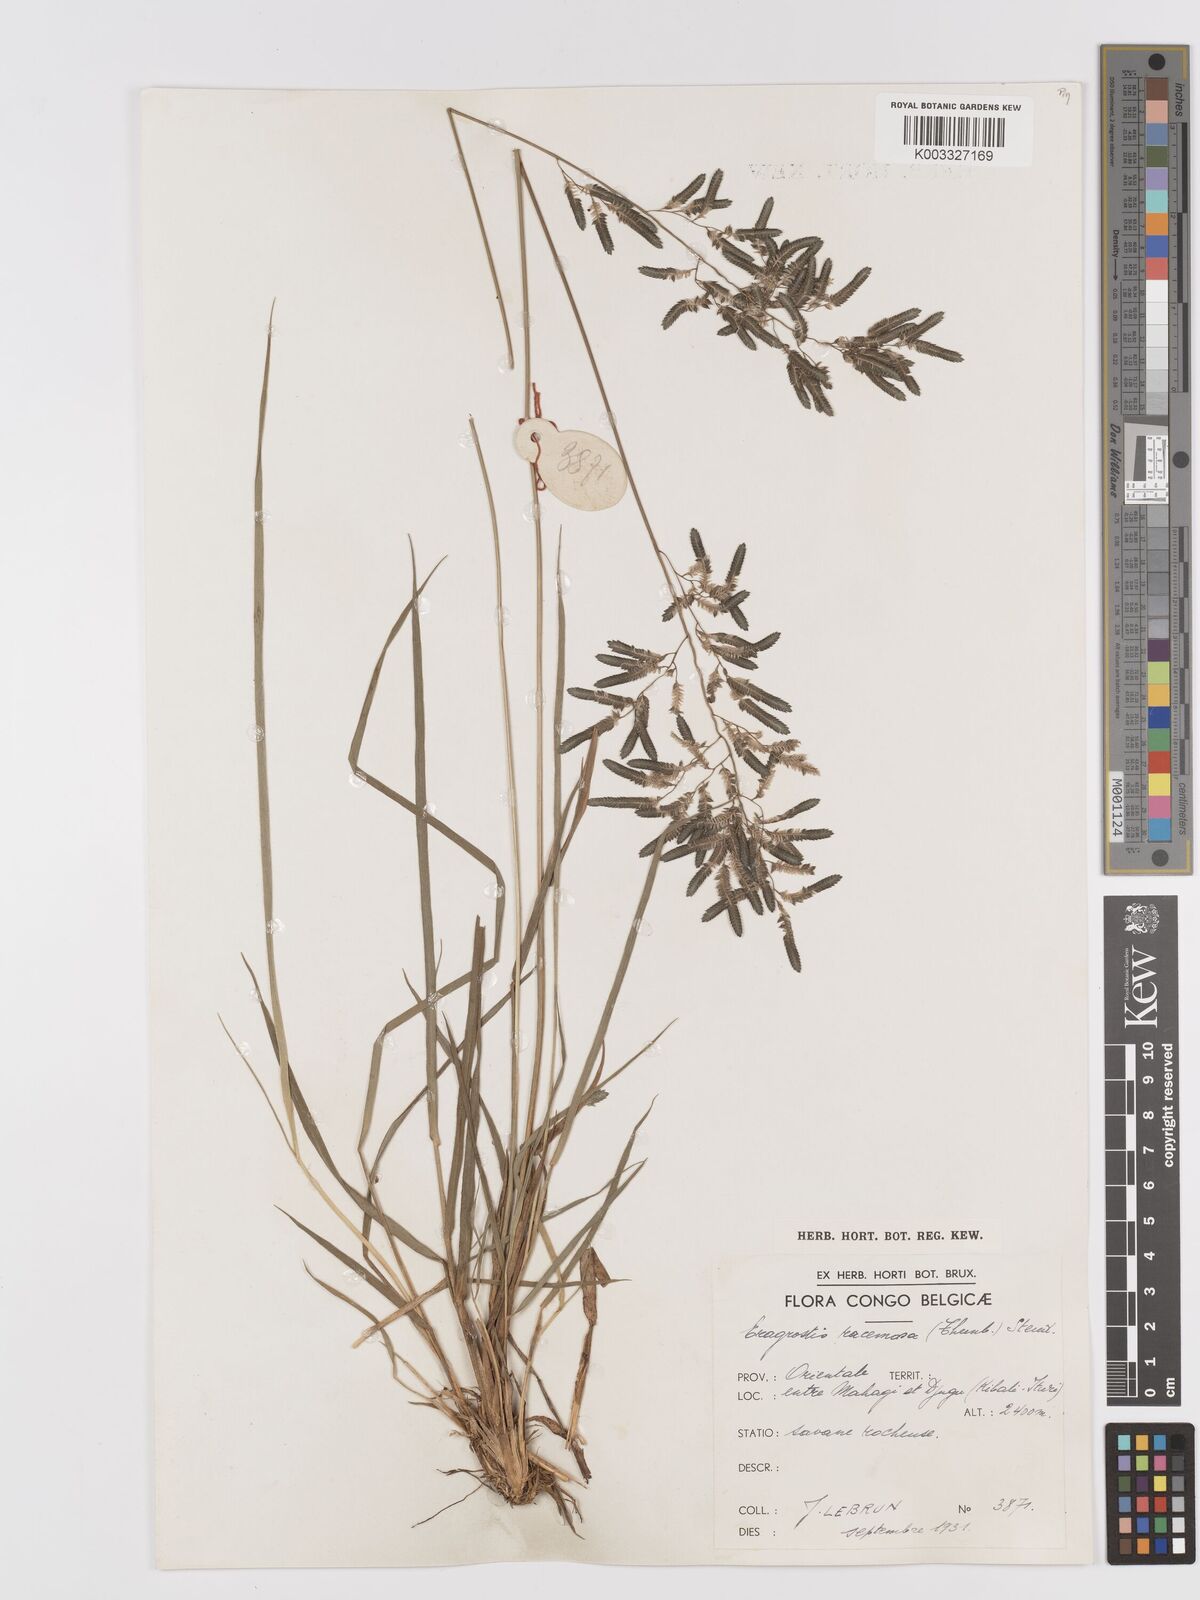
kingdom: Plantae
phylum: Tracheophyta
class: Liliopsida
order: Poales
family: Poaceae
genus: Eragrostis
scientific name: Eragrostis racemosa
